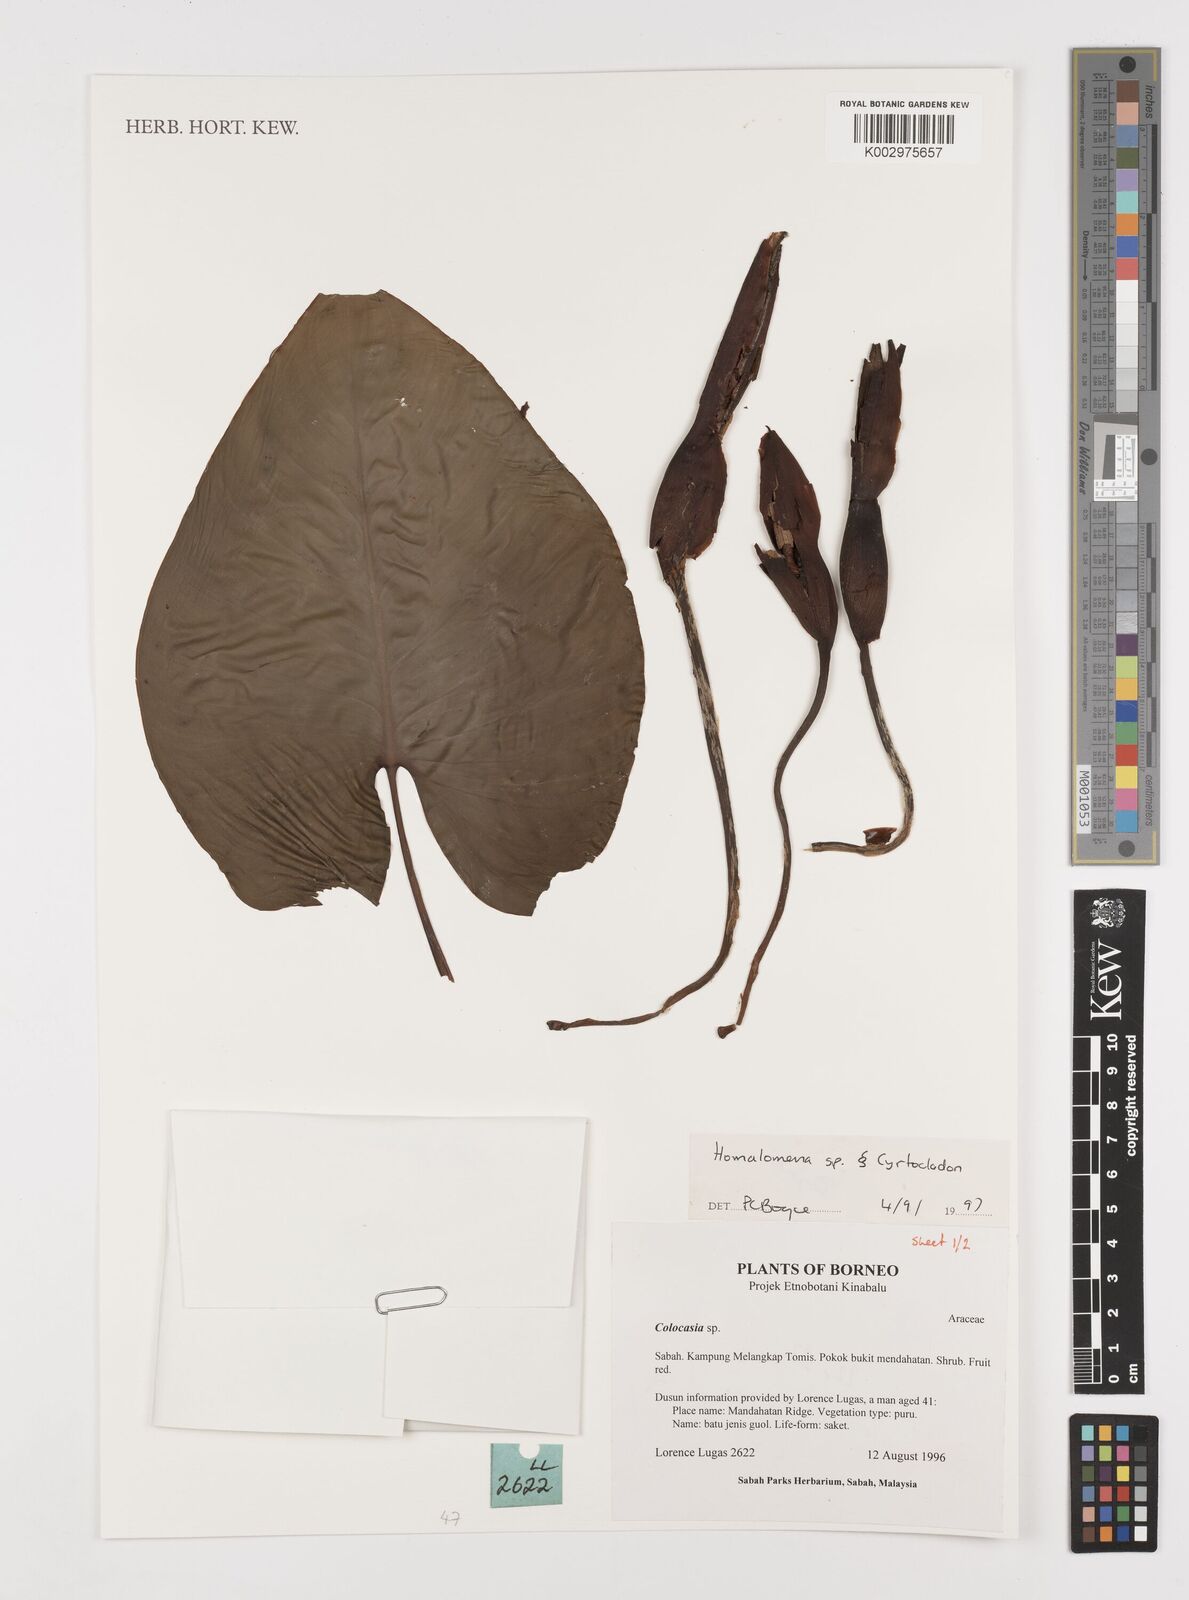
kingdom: Plantae
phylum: Tracheophyta
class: Liliopsida
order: Alismatales
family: Araceae
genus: Homalomena
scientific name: Homalomena
